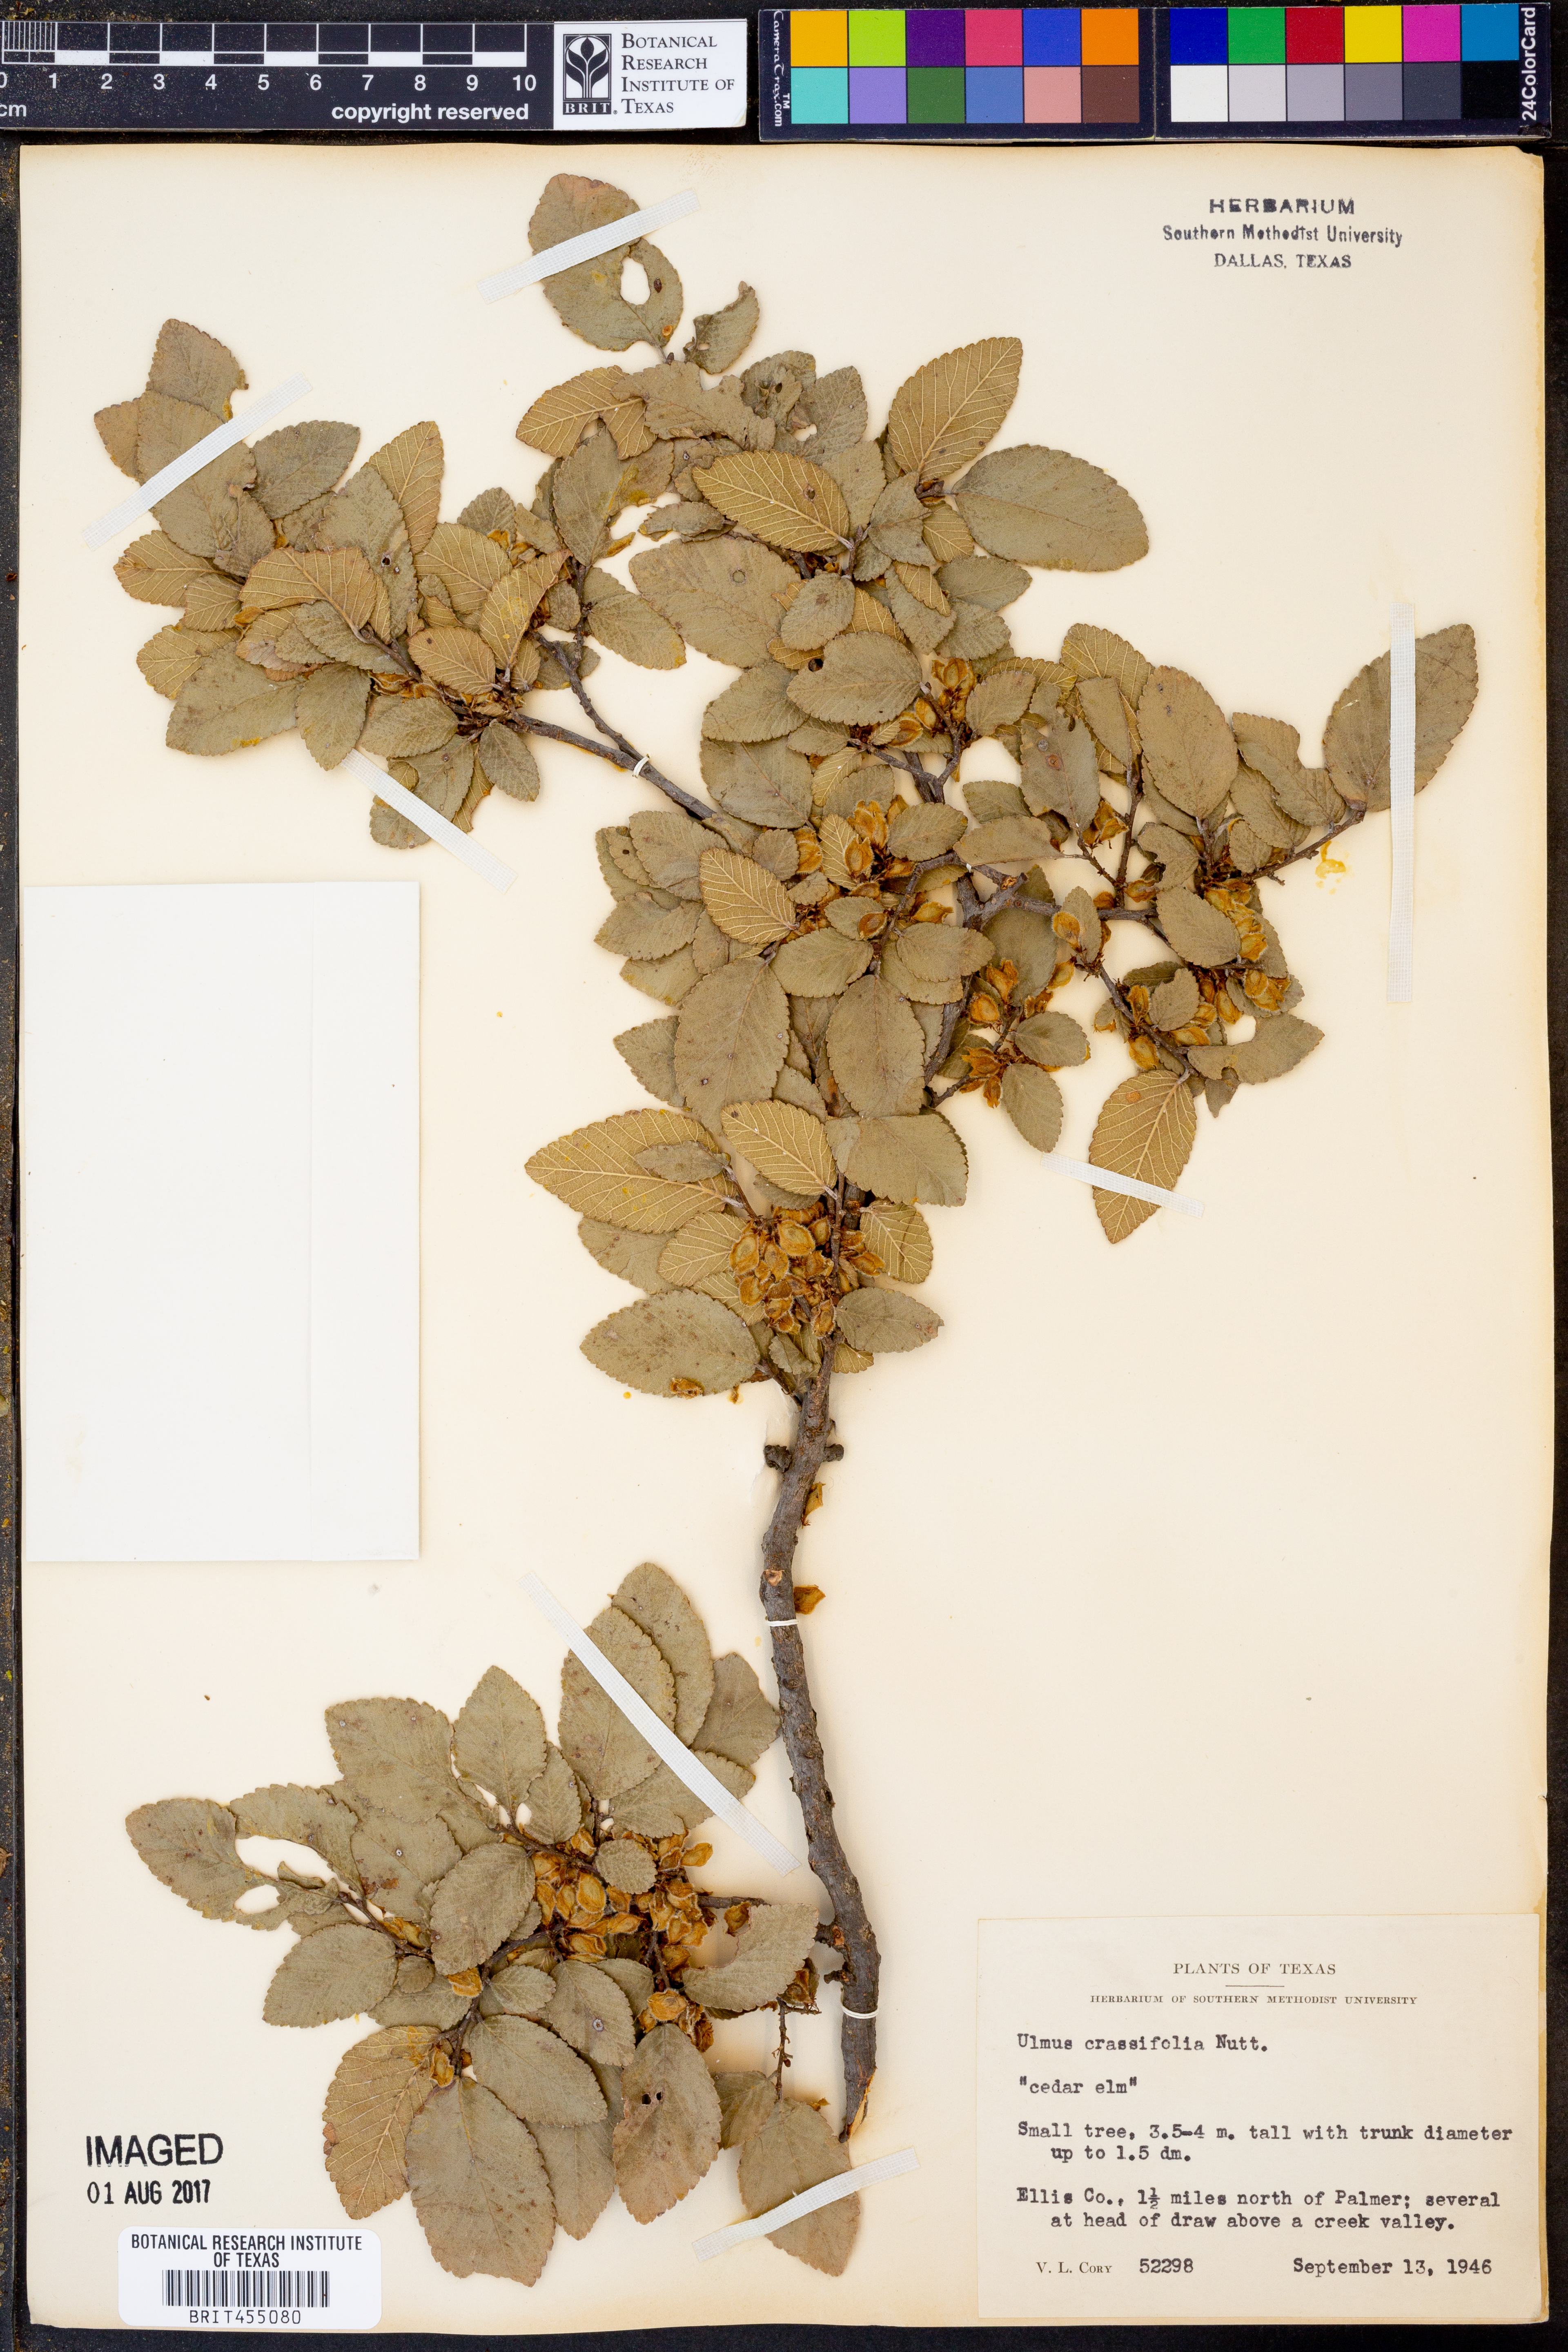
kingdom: Plantae
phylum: Tracheophyta
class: Magnoliopsida
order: Rosales
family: Ulmaceae
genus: Ulmus
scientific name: Ulmus crassifolia
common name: Basket elm
